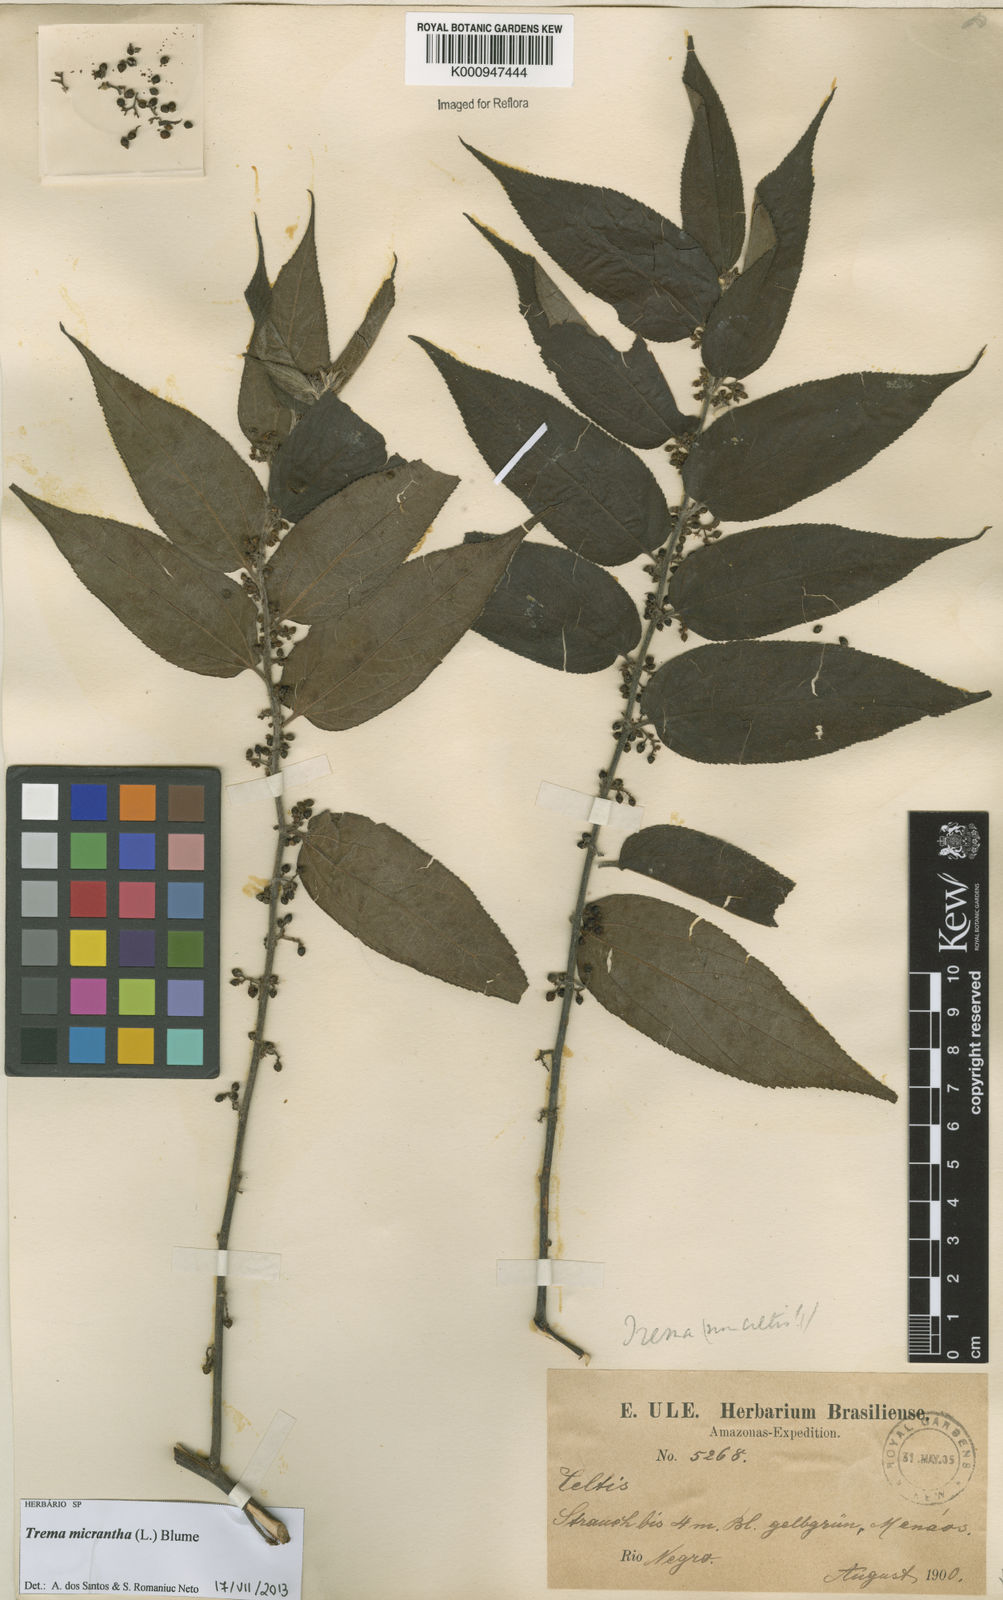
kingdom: Plantae
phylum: Tracheophyta
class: Magnoliopsida
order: Rosales
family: Cannabaceae
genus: Trema
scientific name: Trema micranthum
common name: Jamaican nettletree
